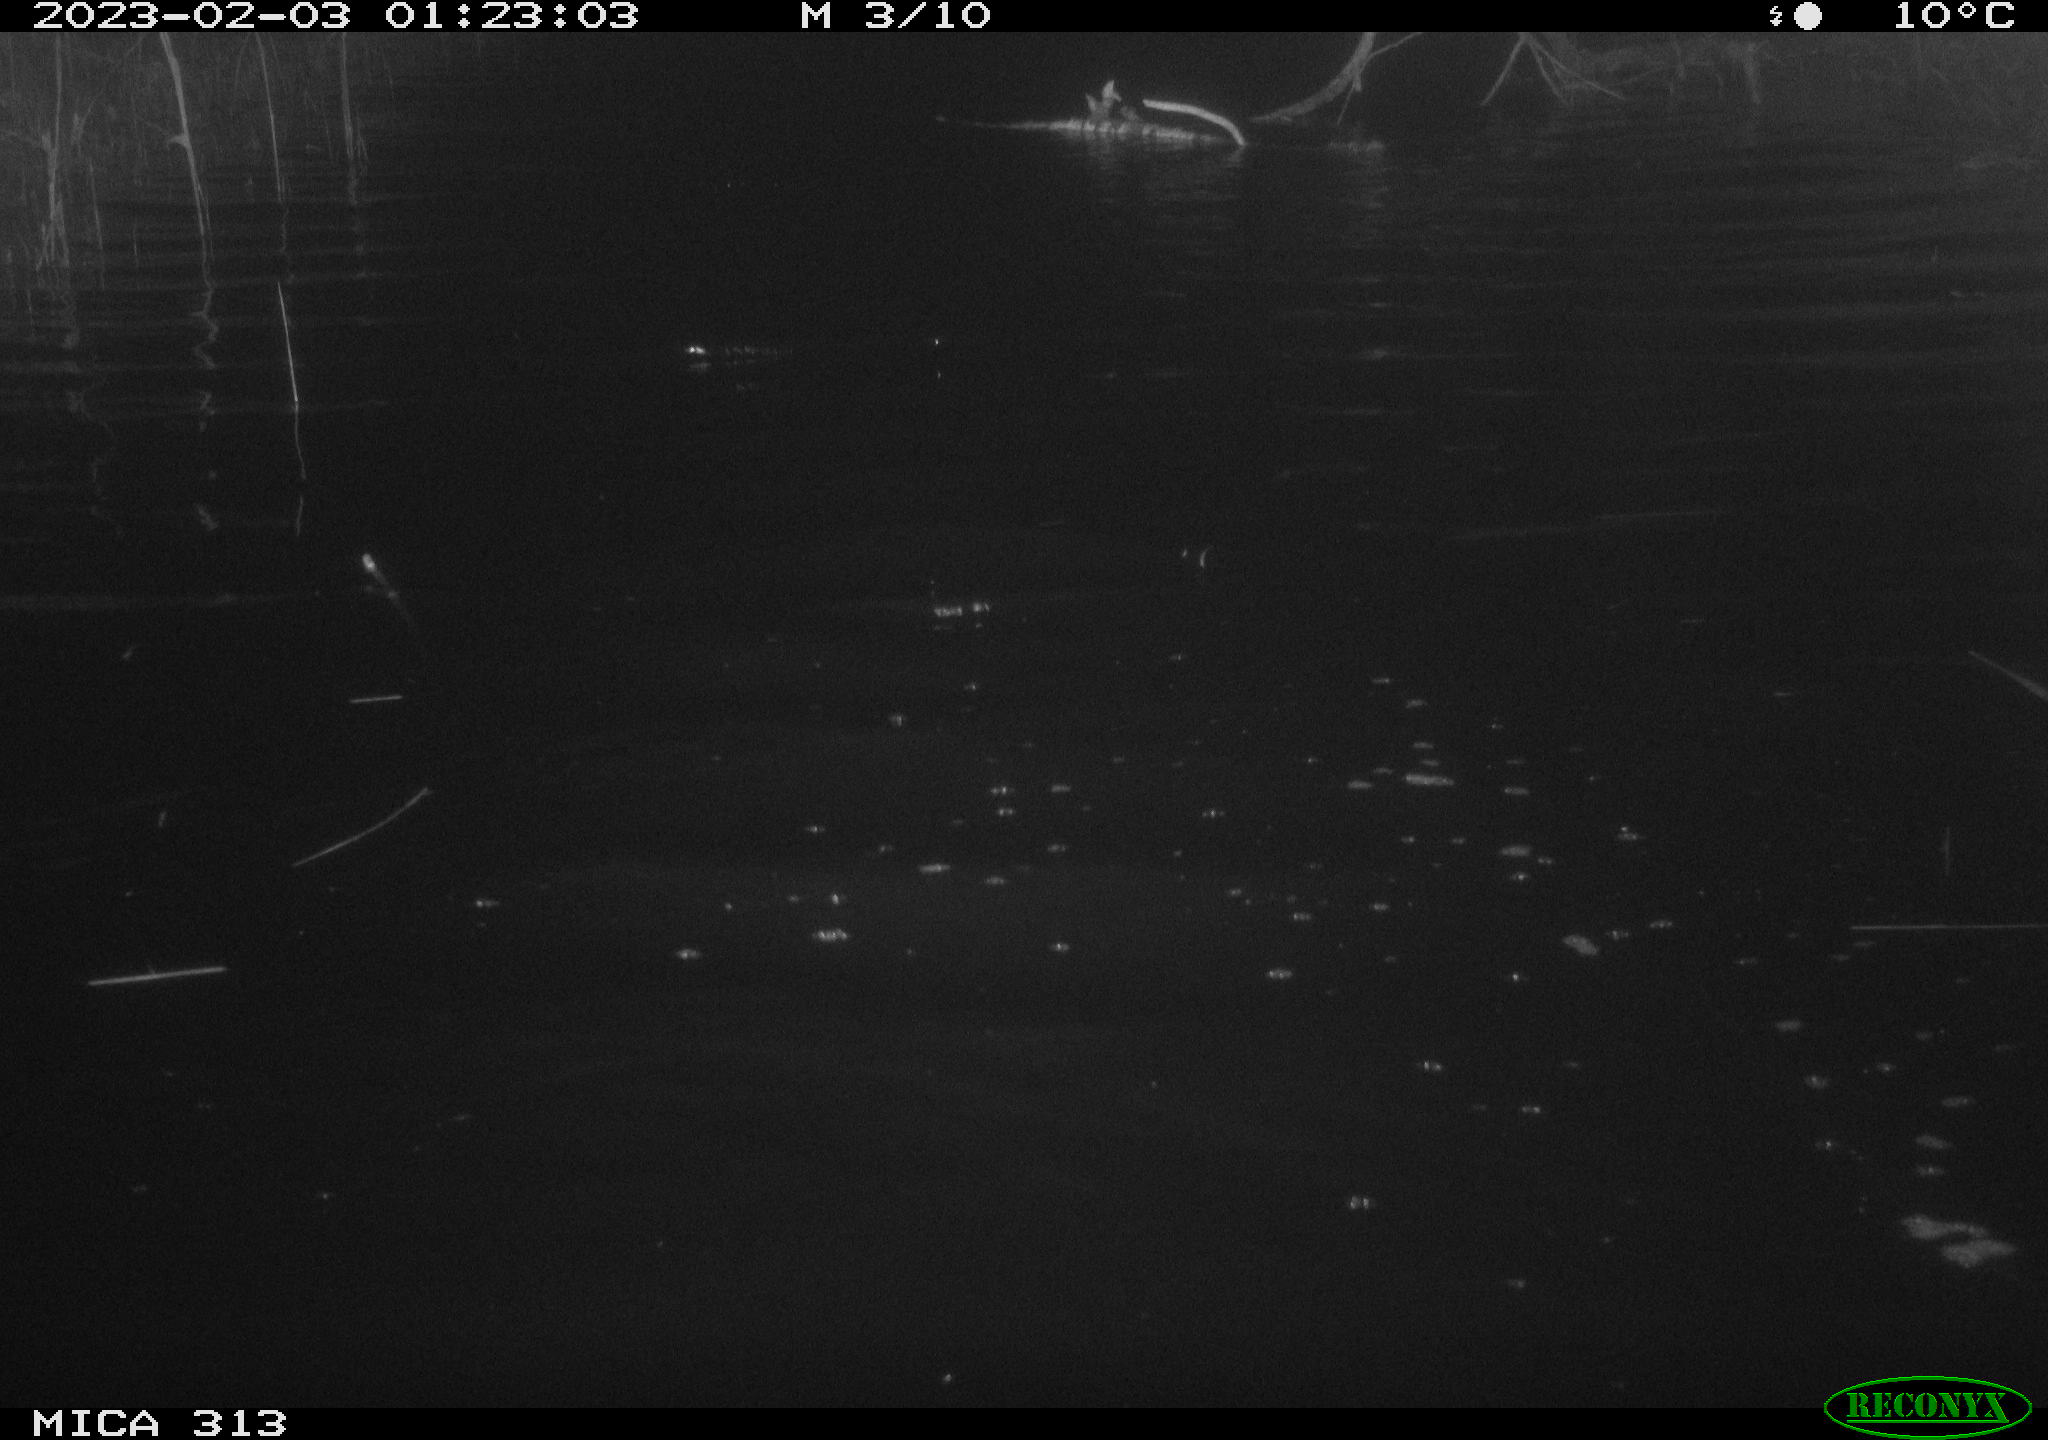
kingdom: Animalia
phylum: Chordata
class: Mammalia
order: Rodentia
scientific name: Rodentia
